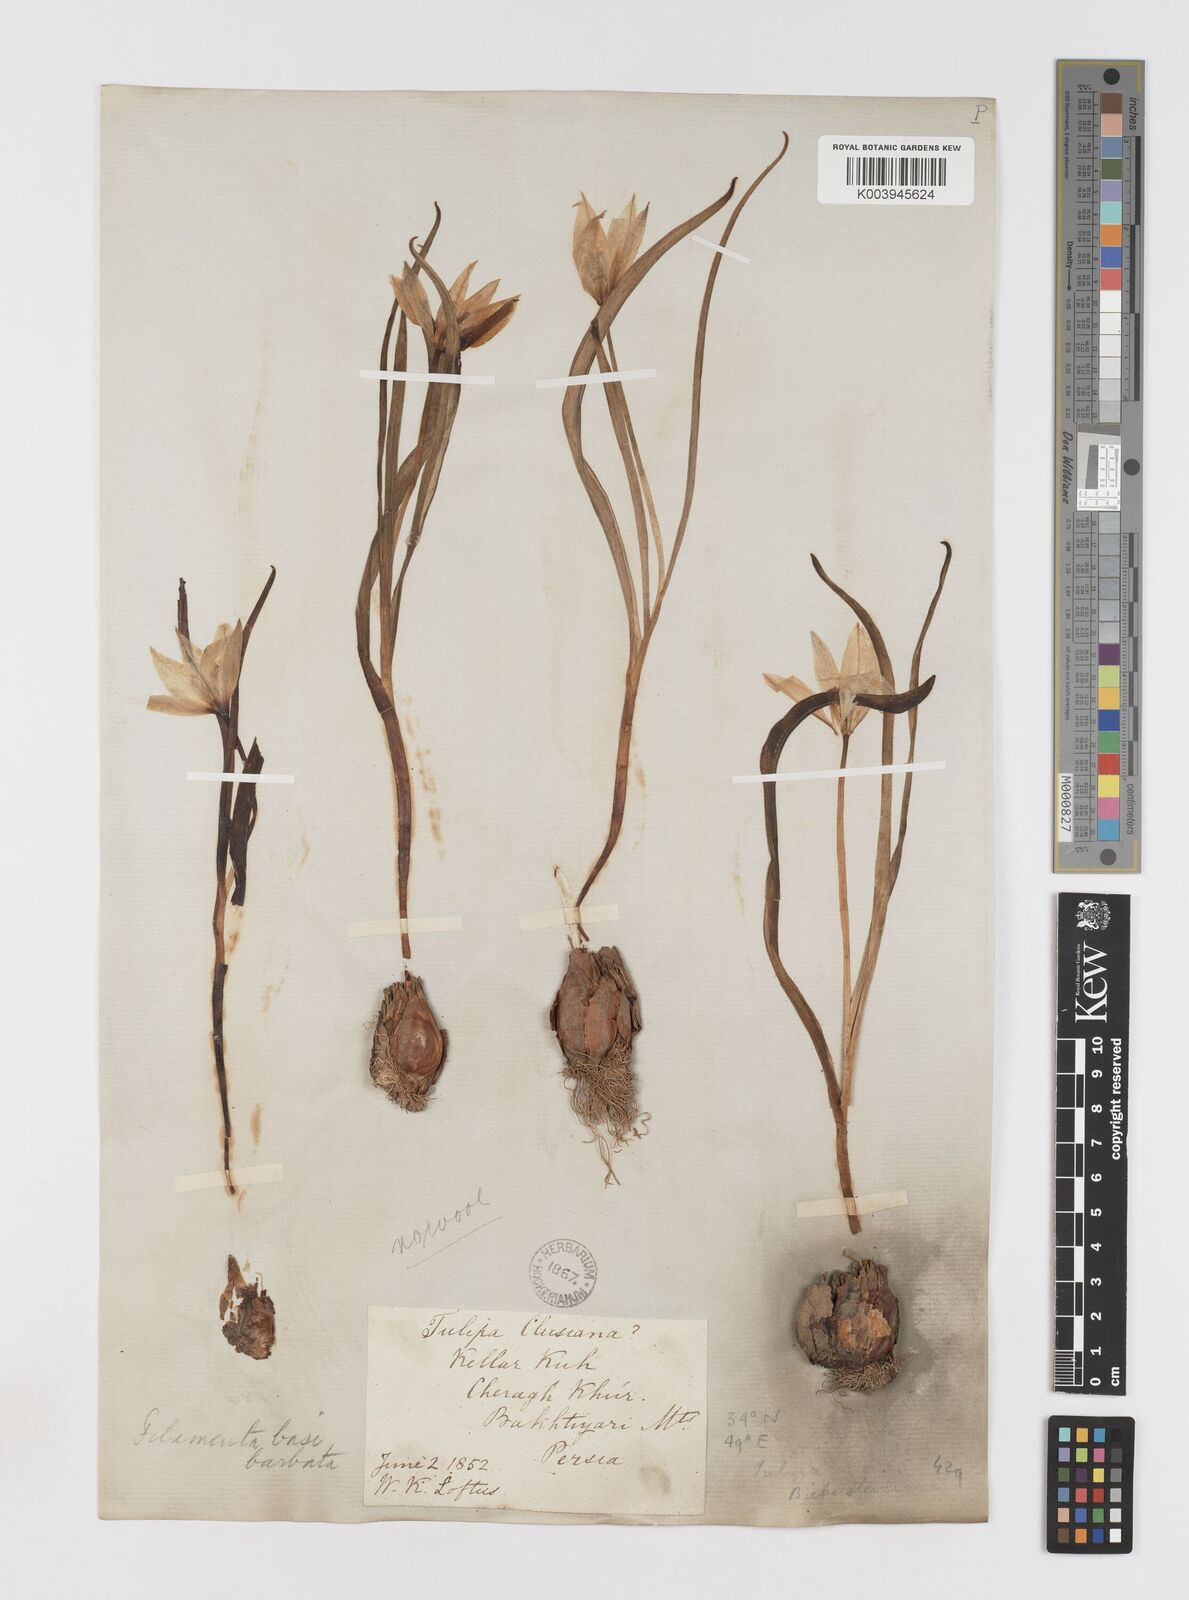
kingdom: Plantae
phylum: Tracheophyta
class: Liliopsida
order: Liliales
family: Liliaceae
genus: Tulipa
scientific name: Tulipa sylvestris
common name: Wild tulip
